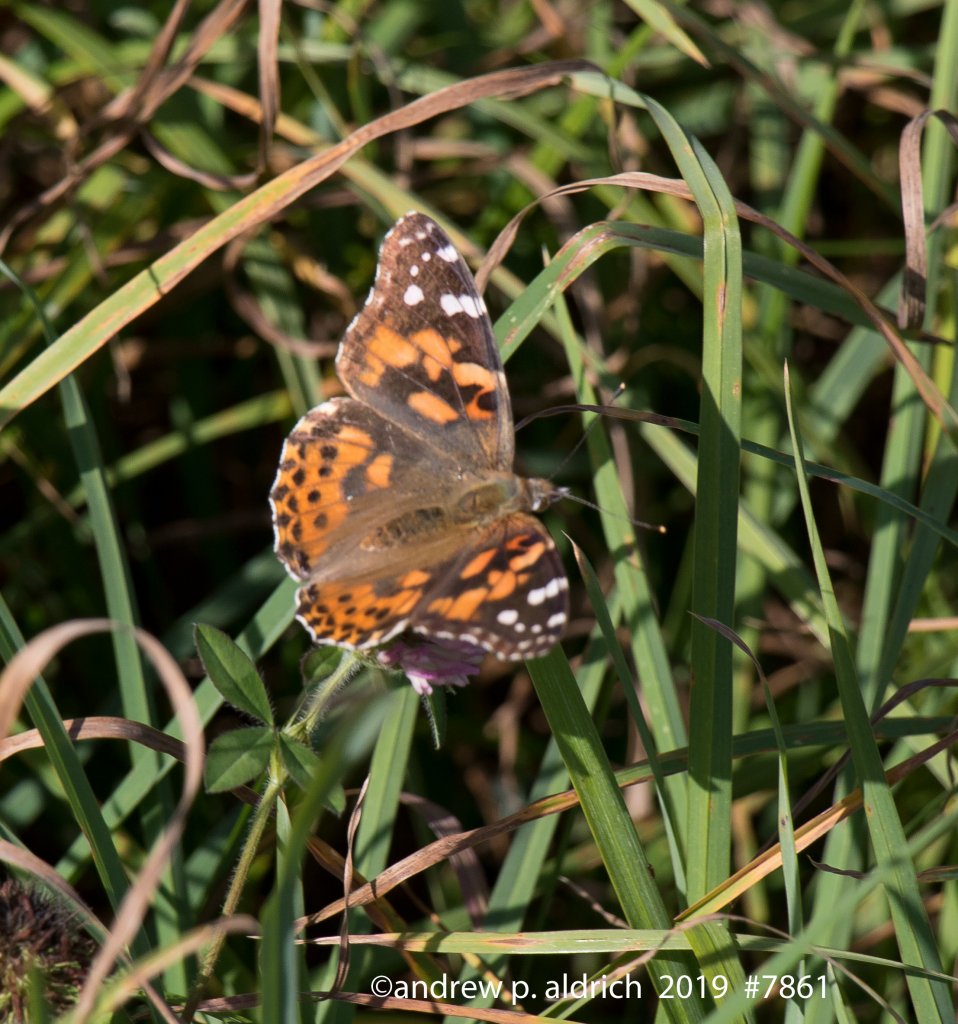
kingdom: Animalia
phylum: Arthropoda
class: Insecta
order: Lepidoptera
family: Nymphalidae
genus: Vanessa
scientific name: Vanessa cardui
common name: Painted Lady
